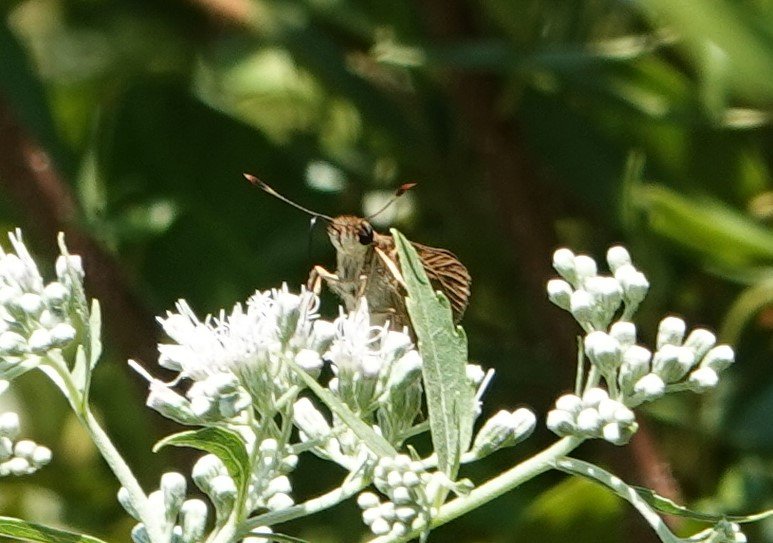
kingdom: Animalia
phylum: Arthropoda
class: Insecta
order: Lepidoptera
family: Hesperiidae
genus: Euphyes
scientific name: Euphyes dion
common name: Dion Skipper
